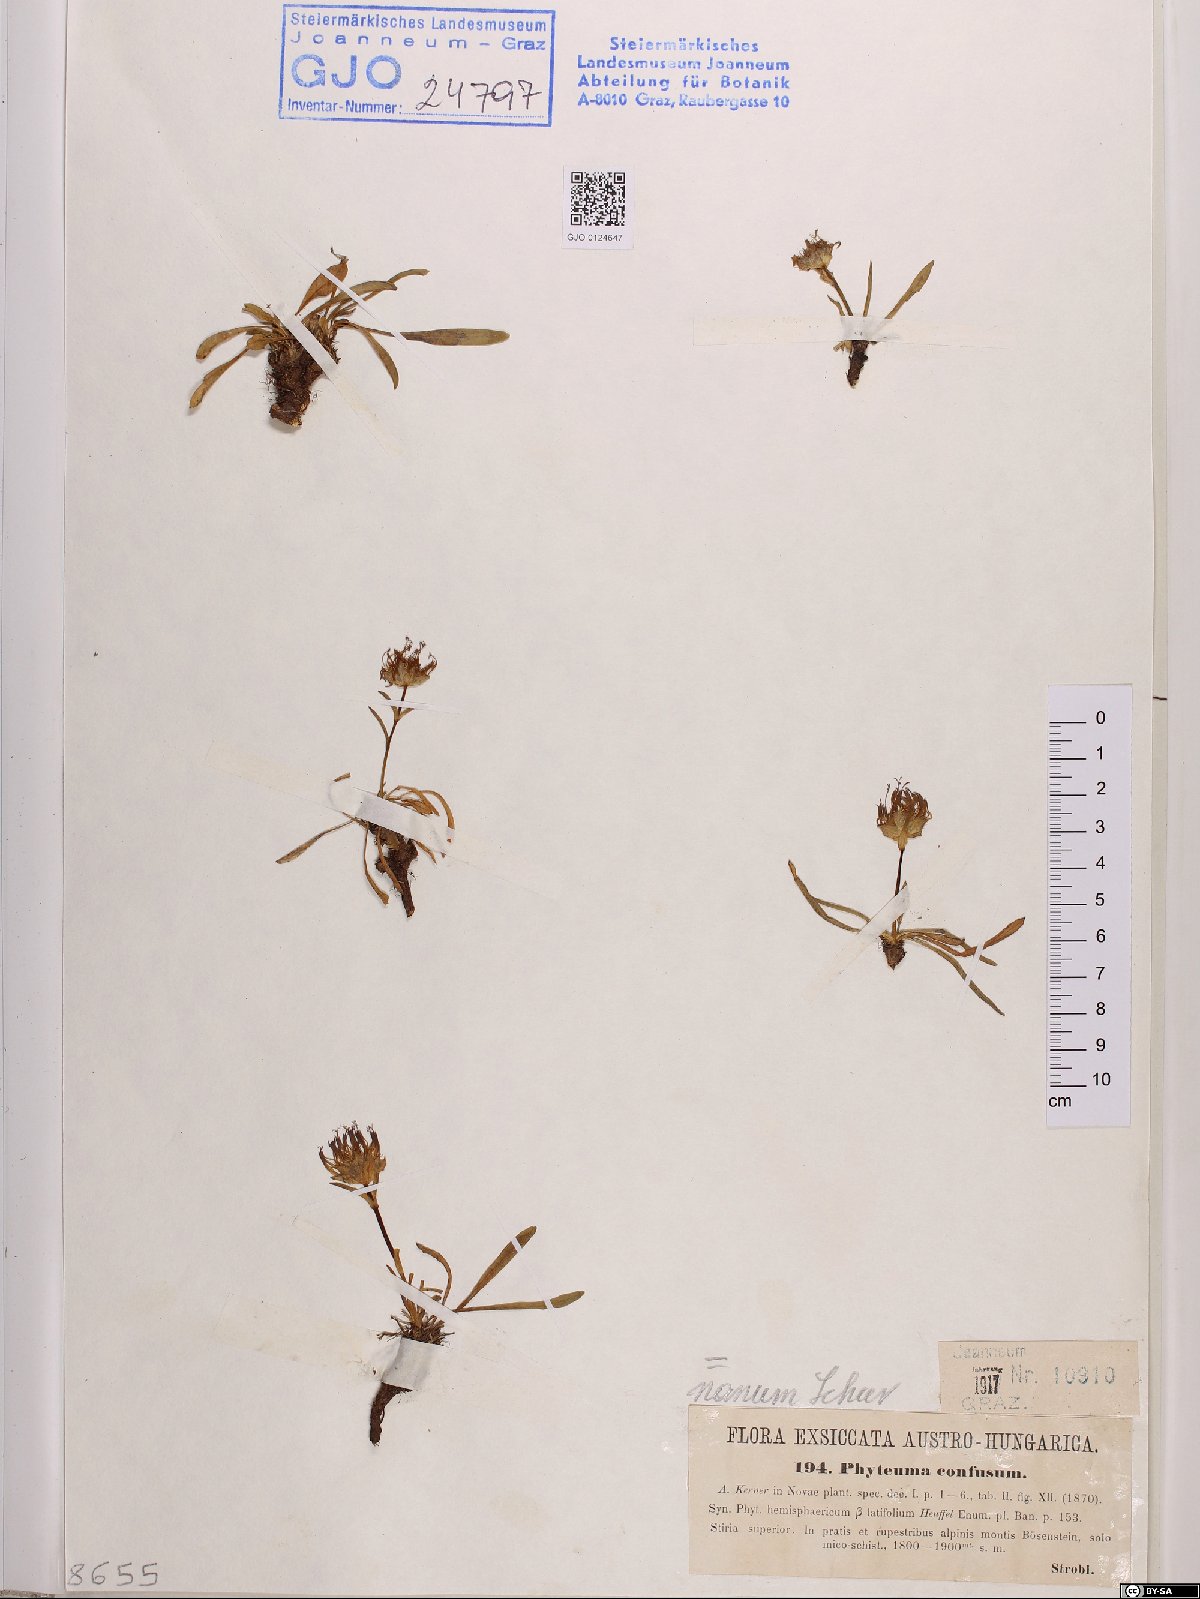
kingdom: Plantae
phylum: Tracheophyta
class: Magnoliopsida
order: Asterales
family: Campanulaceae
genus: Phyteuma
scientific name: Phyteuma confusum
